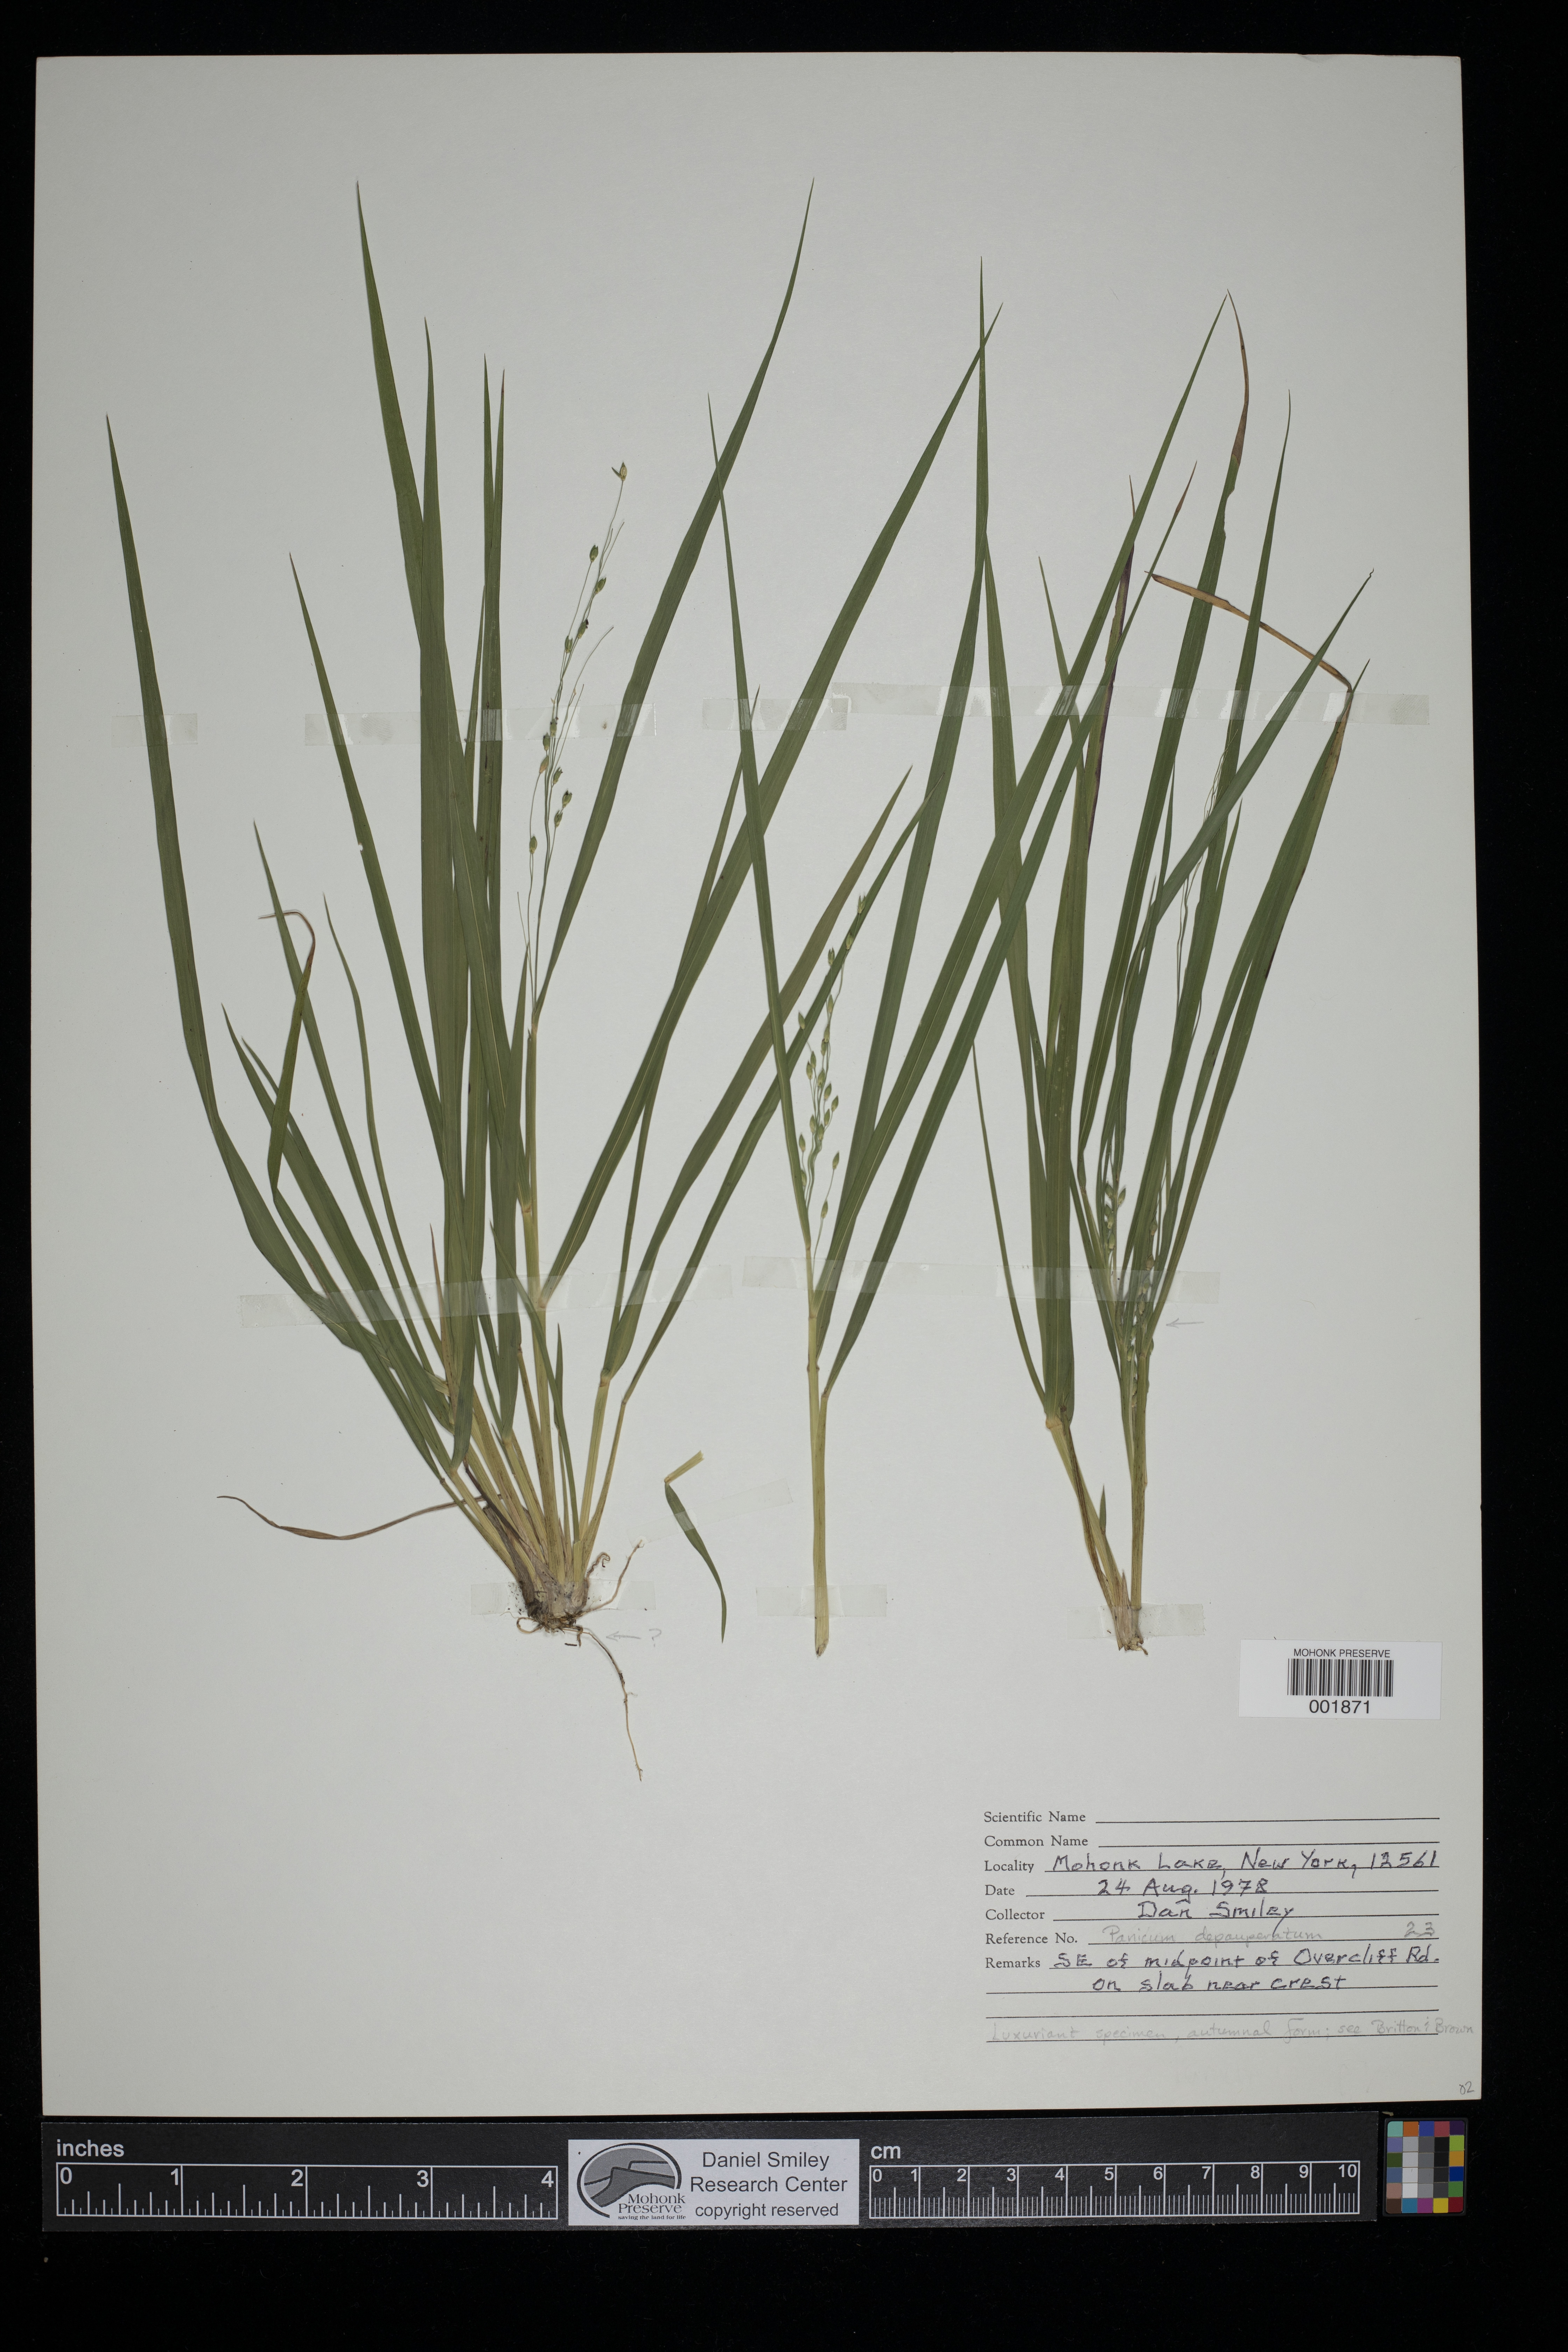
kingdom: Plantae
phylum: Tracheophyta
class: Liliopsida
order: Poales
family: Poaceae
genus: Dichanthelium
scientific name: Dichanthelium depauperatum
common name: Depauperate panicgrass
